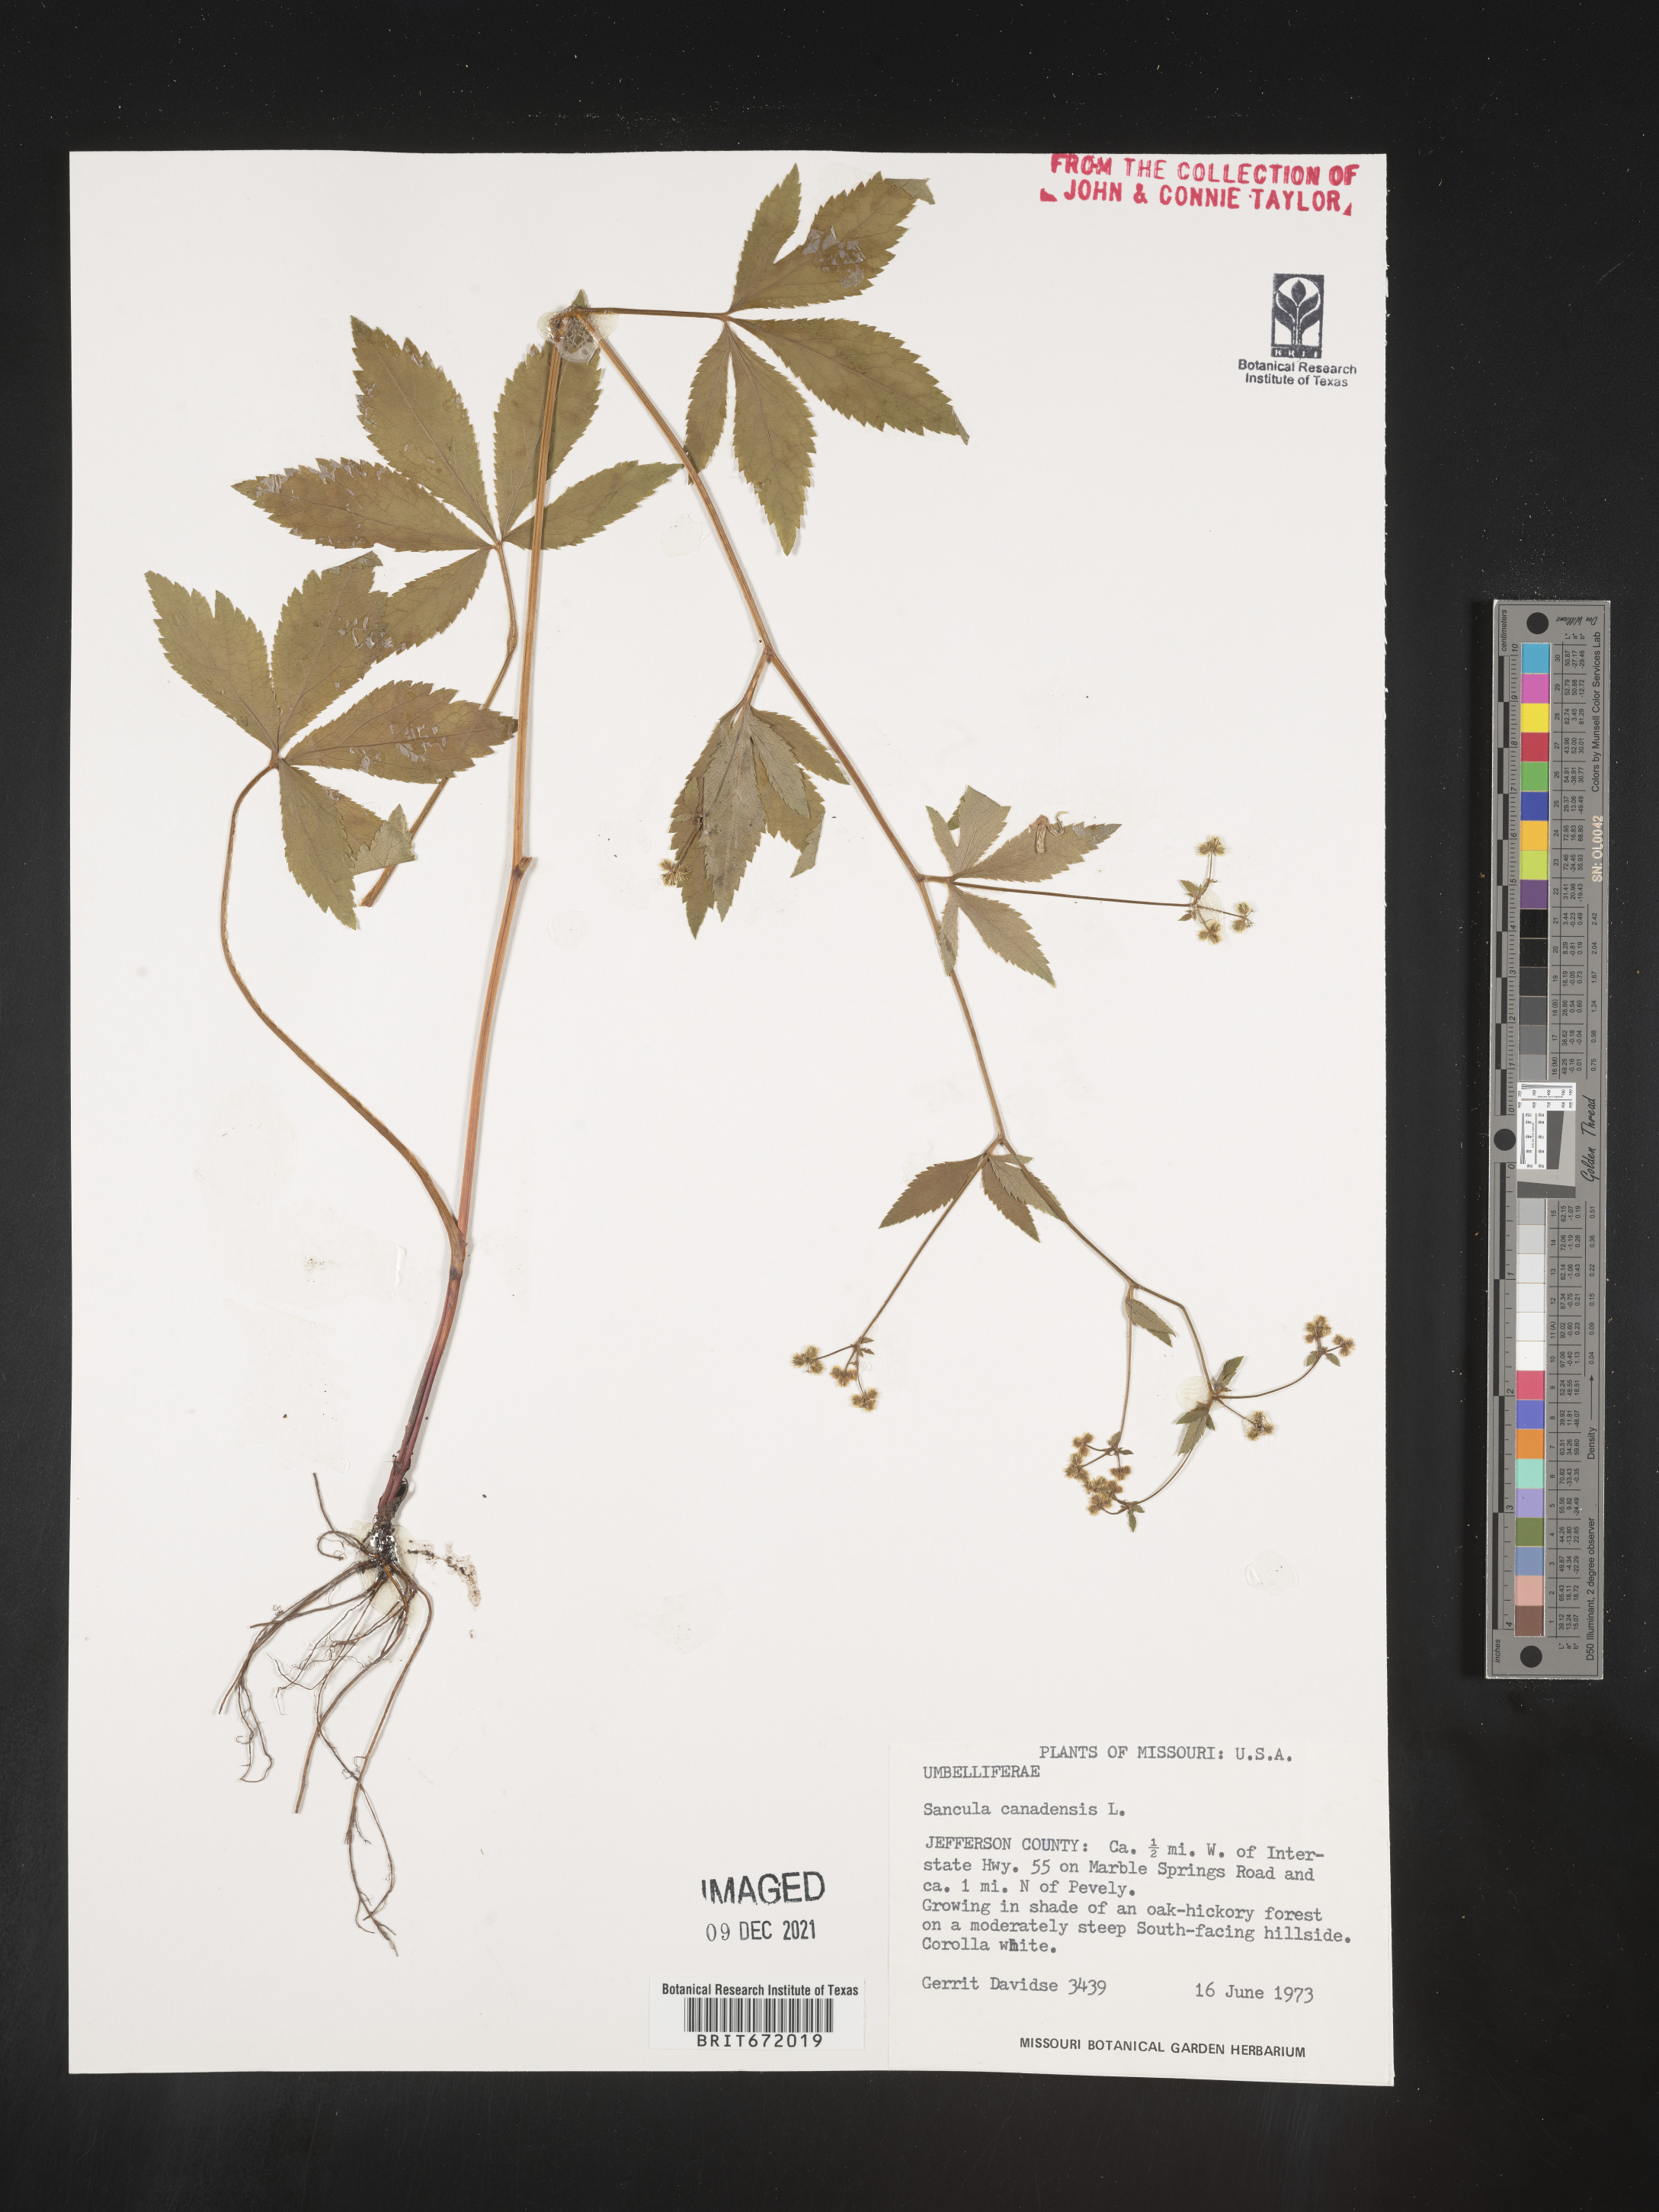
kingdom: Plantae
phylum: Tracheophyta
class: Magnoliopsida
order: Apiales
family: Apiaceae
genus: Sanicula
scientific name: Sanicula canadensis
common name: Canada sanicle
